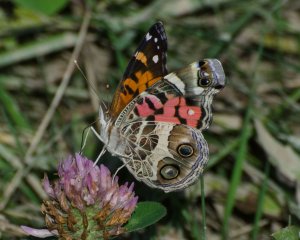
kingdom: Animalia
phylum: Arthropoda
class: Insecta
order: Lepidoptera
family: Nymphalidae
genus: Vanessa
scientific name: Vanessa virginiensis
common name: American Lady
